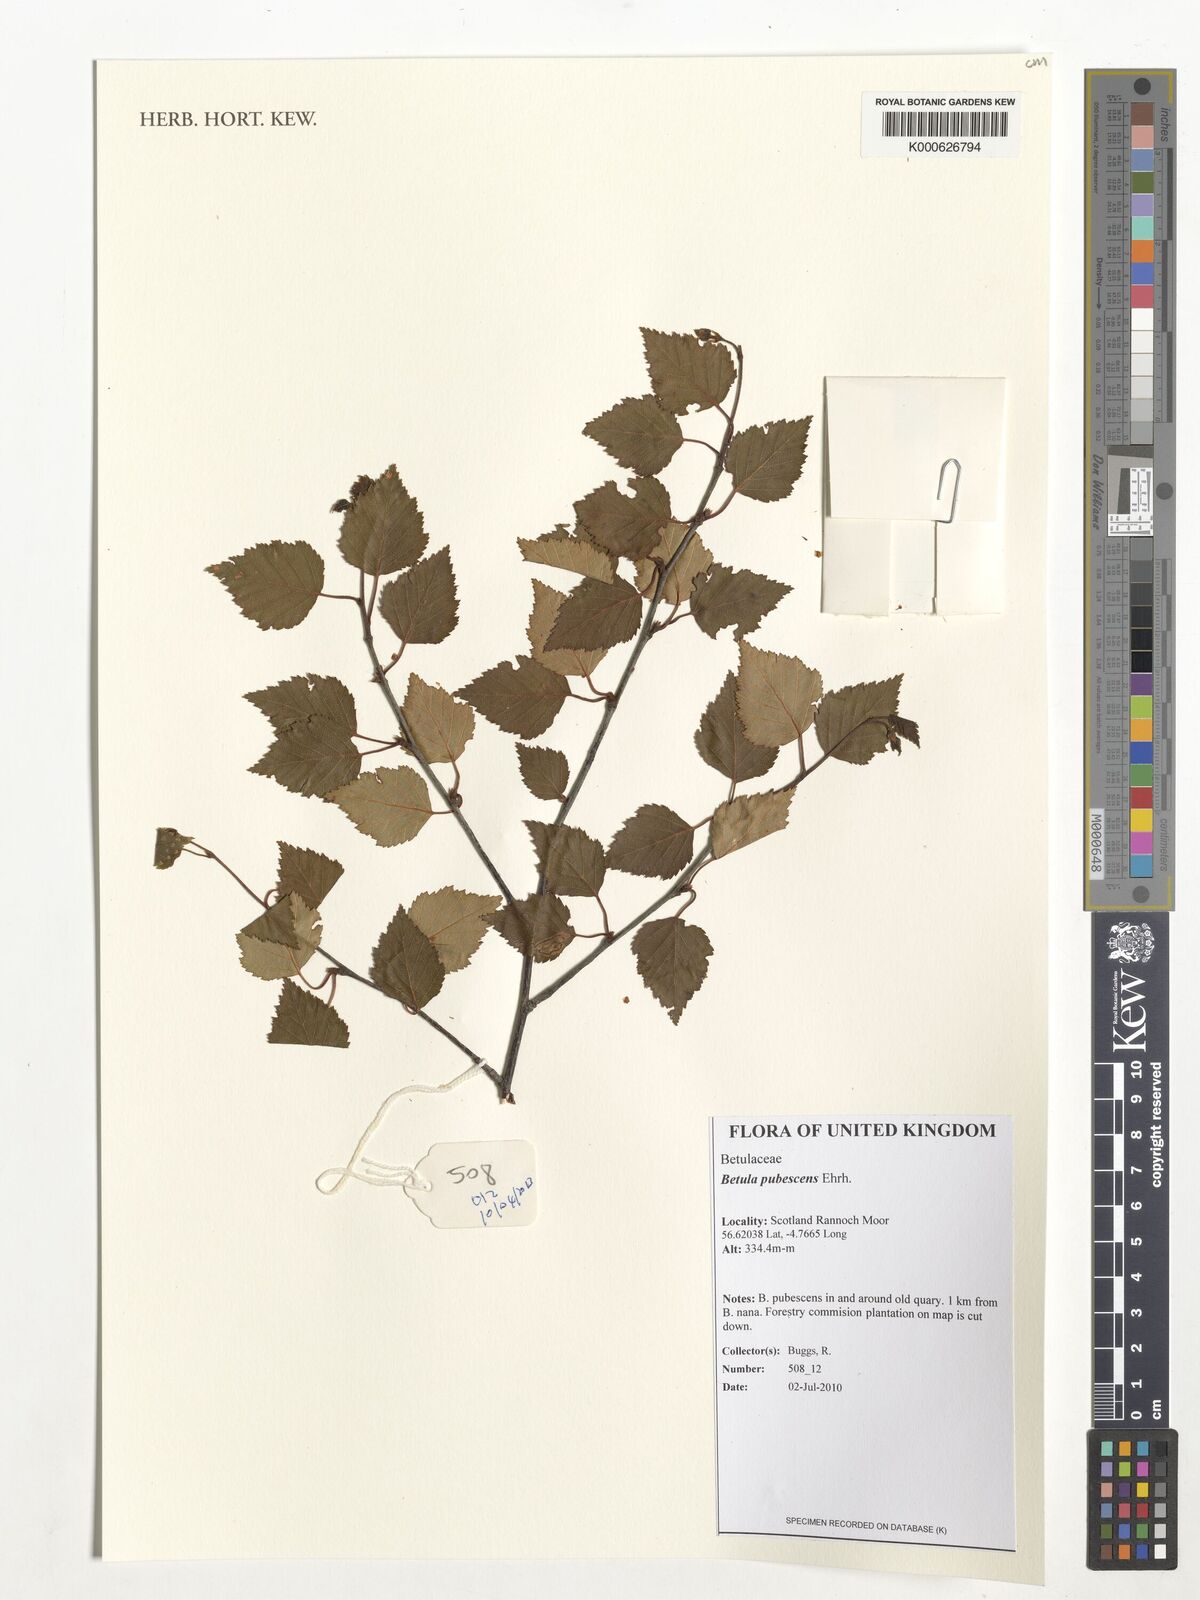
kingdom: Plantae
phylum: Tracheophyta
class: Magnoliopsida
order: Fagales
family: Betulaceae
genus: Betula
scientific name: Betula pubescens
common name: Downy birch
